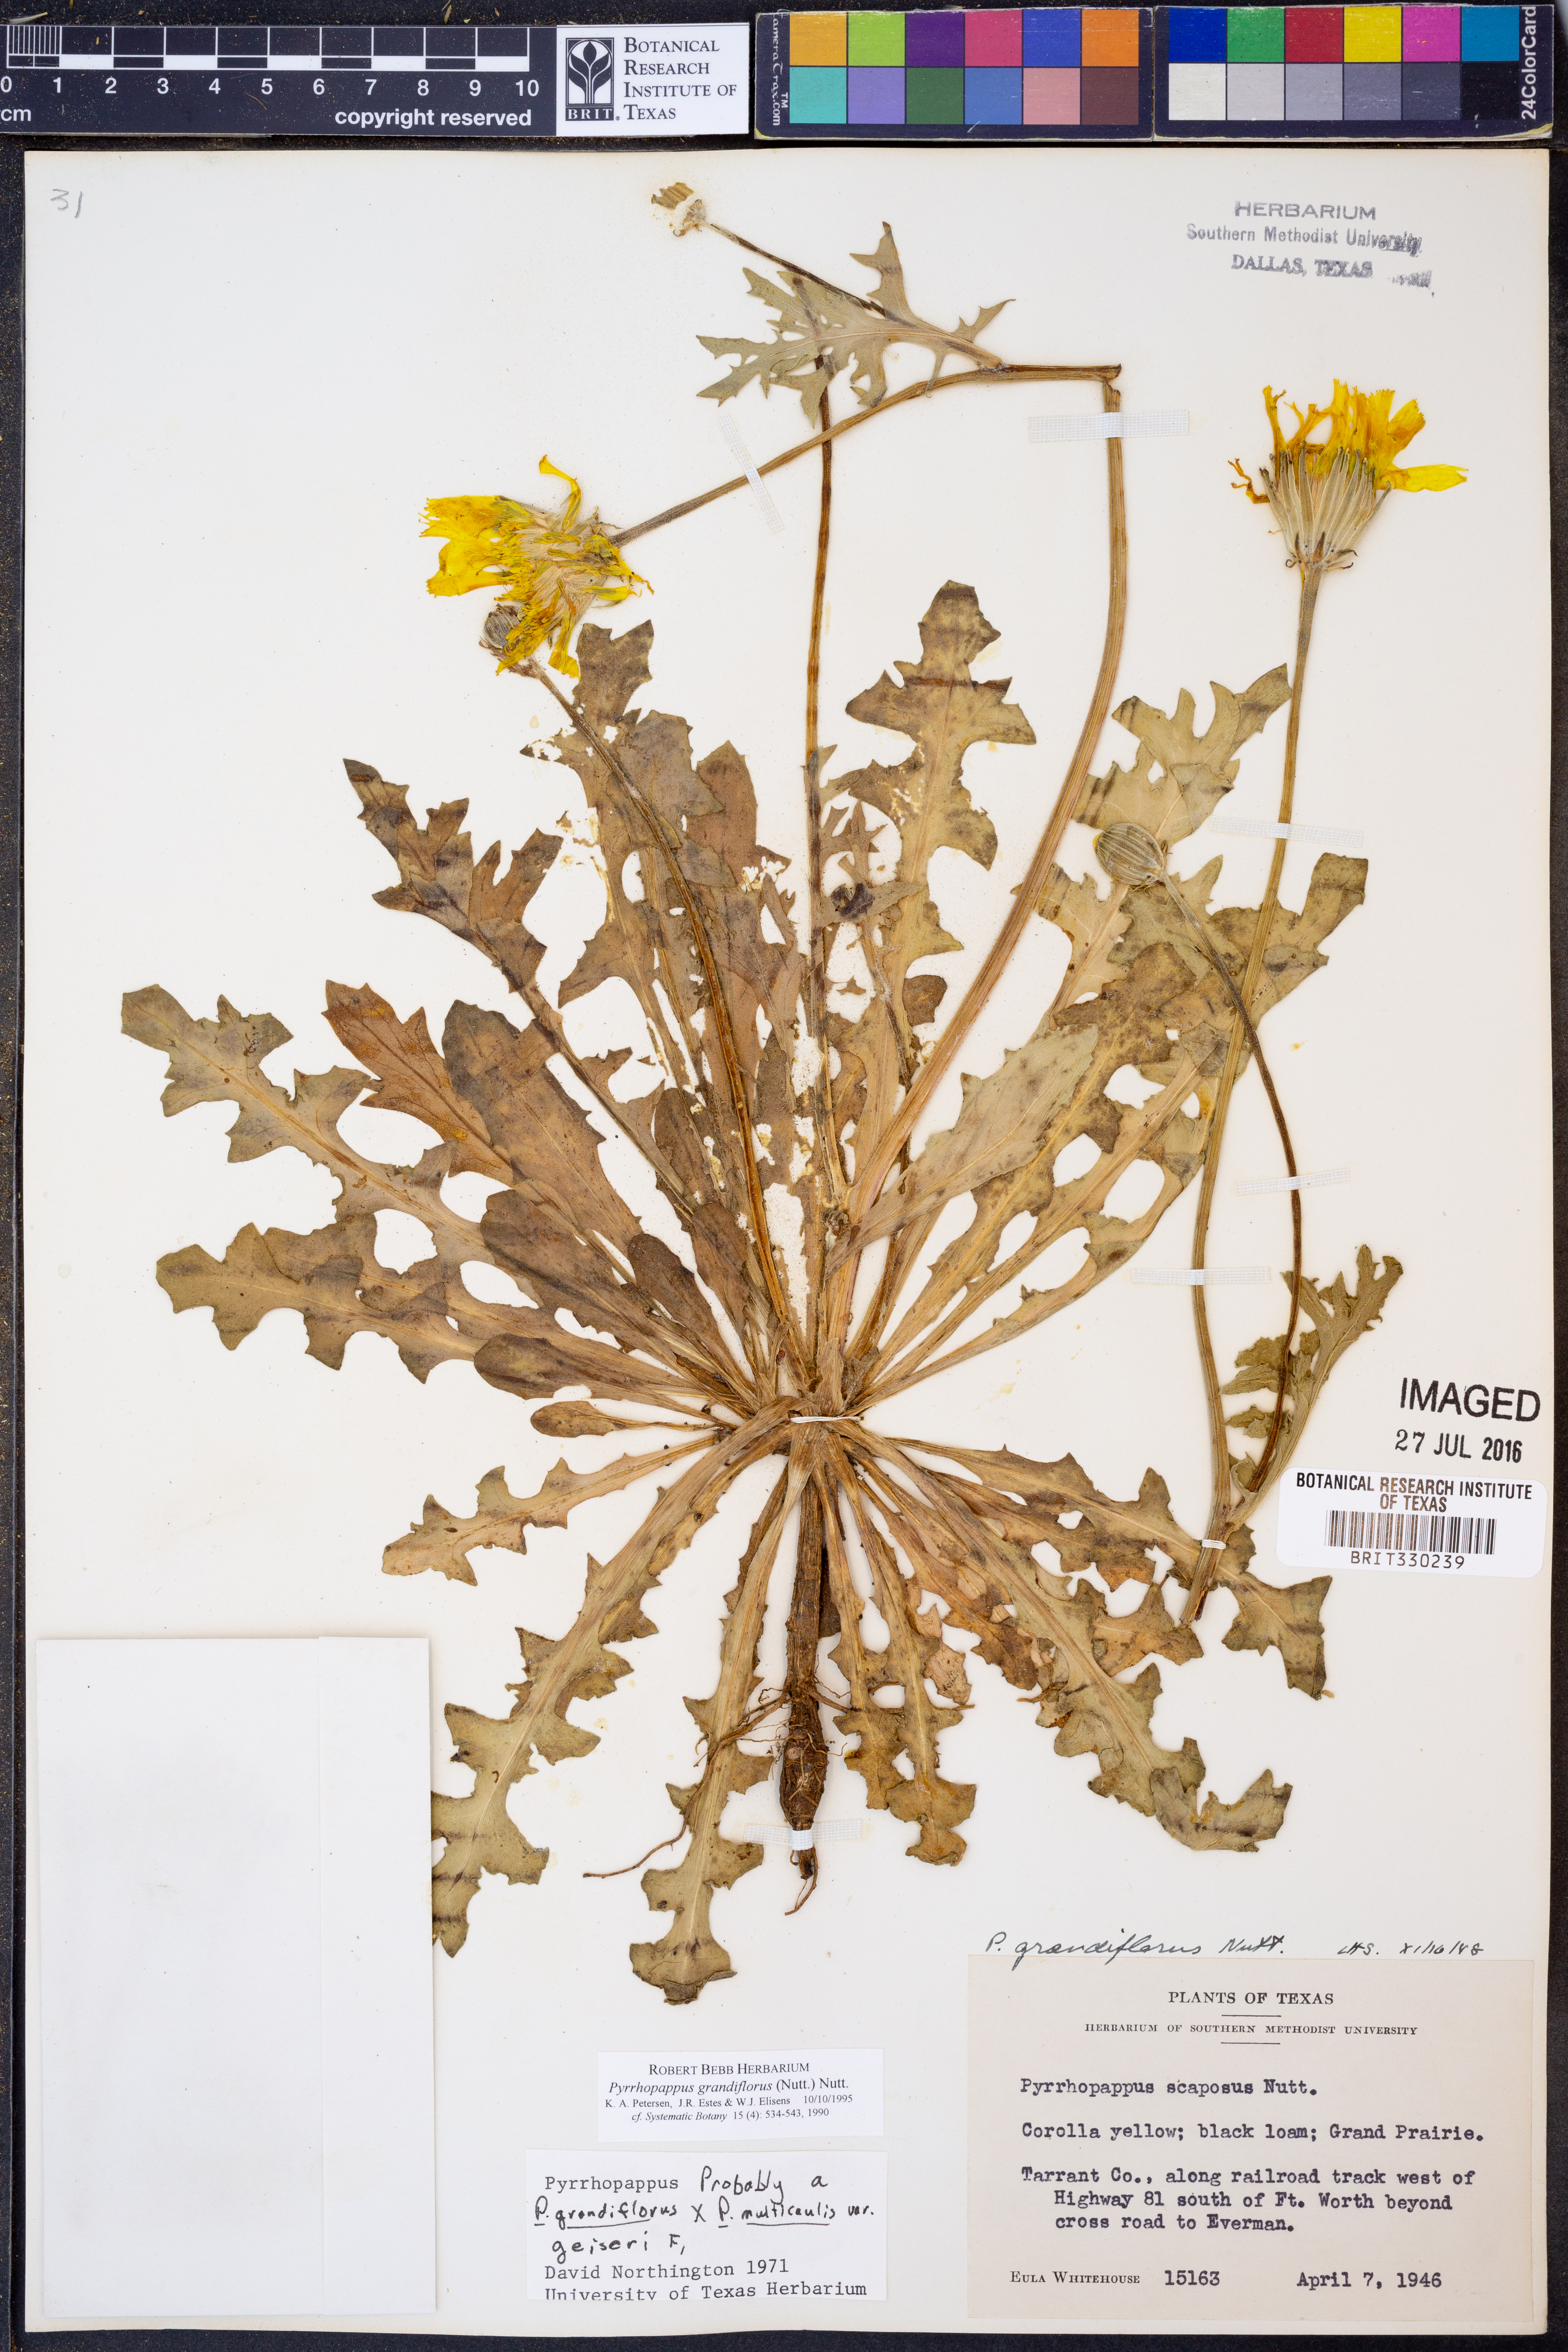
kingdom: Plantae
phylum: Tracheophyta
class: Magnoliopsida
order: Asterales
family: Asteraceae
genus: Pyrrhopappus
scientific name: Pyrrhopappus grandiflorus
